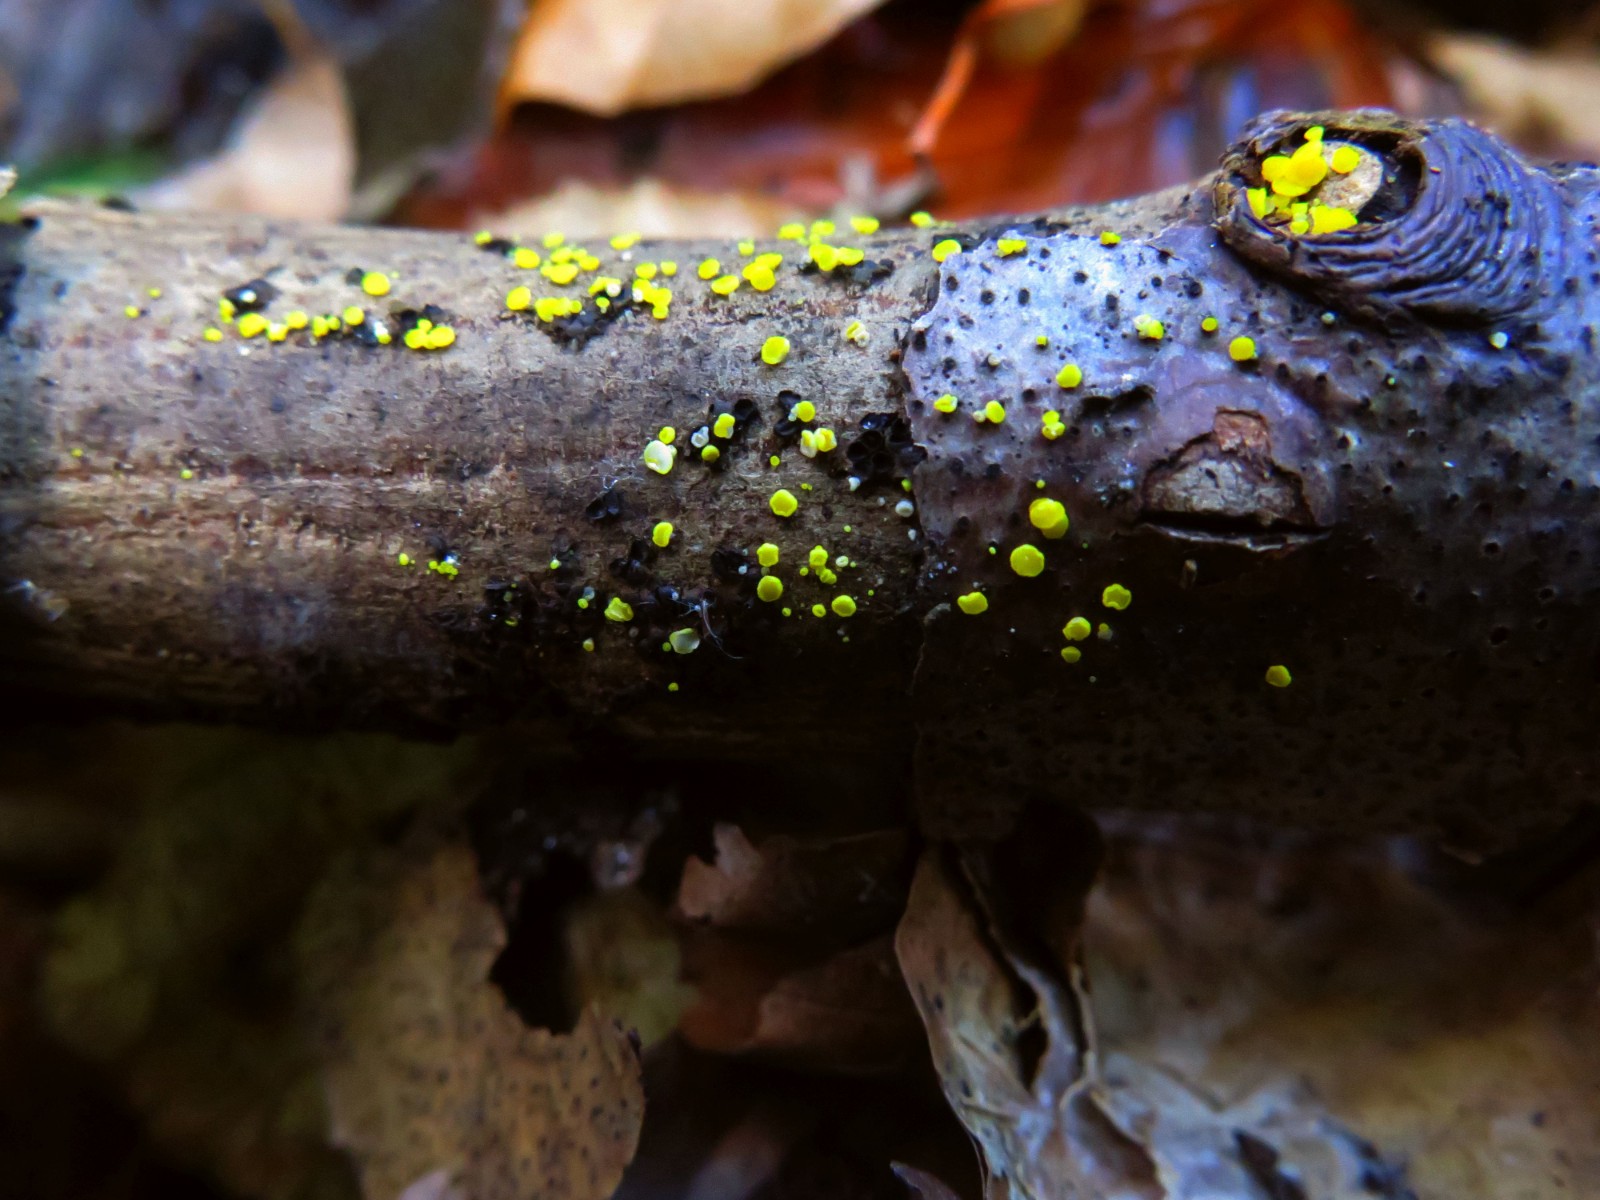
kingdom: Fungi
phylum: Ascomycota
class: Leotiomycetes
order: Helotiales
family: Pezizellaceae
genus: Calycina
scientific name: Calycina citrina
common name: almindelig gulskive
